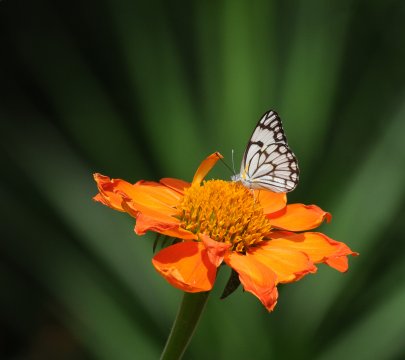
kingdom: Animalia
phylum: Arthropoda
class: Insecta
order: Lepidoptera
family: Pieridae
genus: Belenois
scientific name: Belenois aurota
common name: Pioneer White
